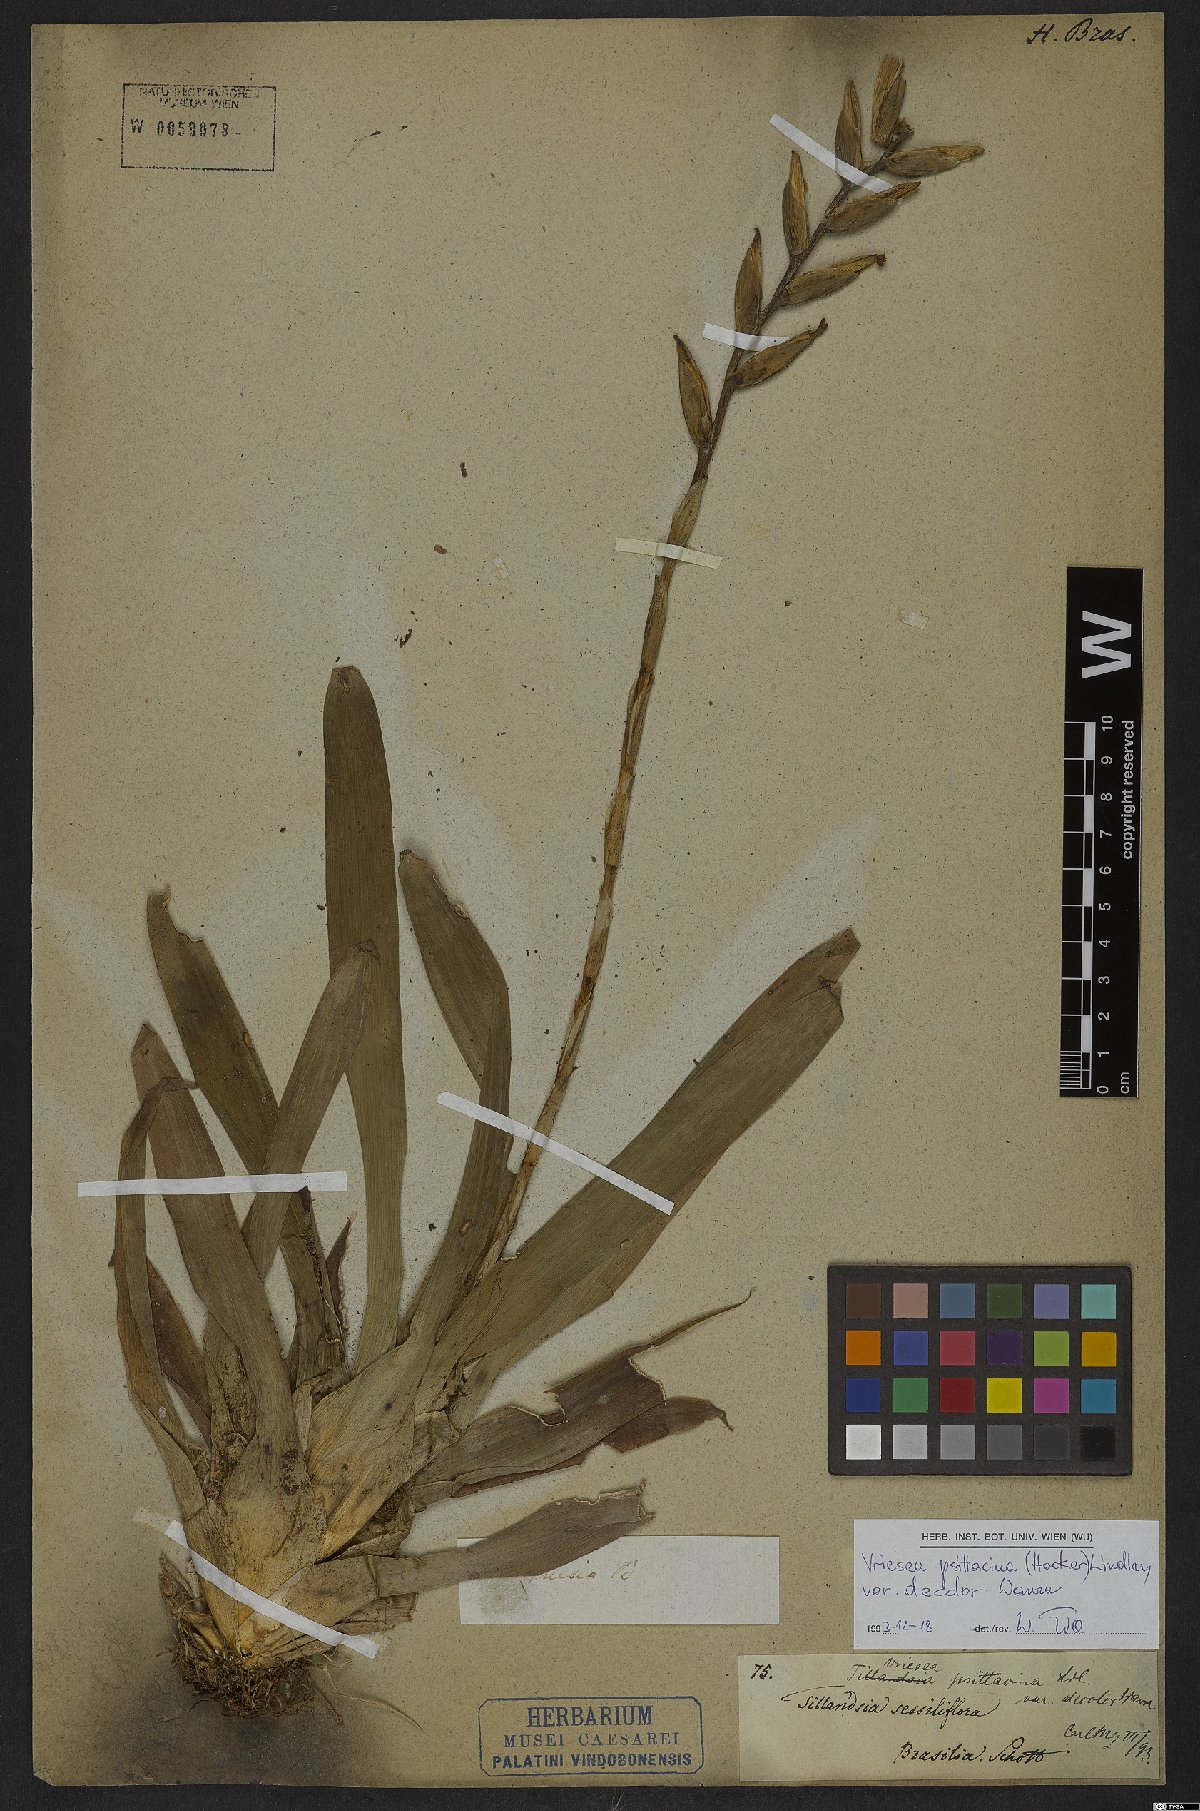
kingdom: Plantae
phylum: Tracheophyta
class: Liliopsida
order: Poales
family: Bromeliaceae
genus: Vriesea
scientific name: Vriesea psittacina
